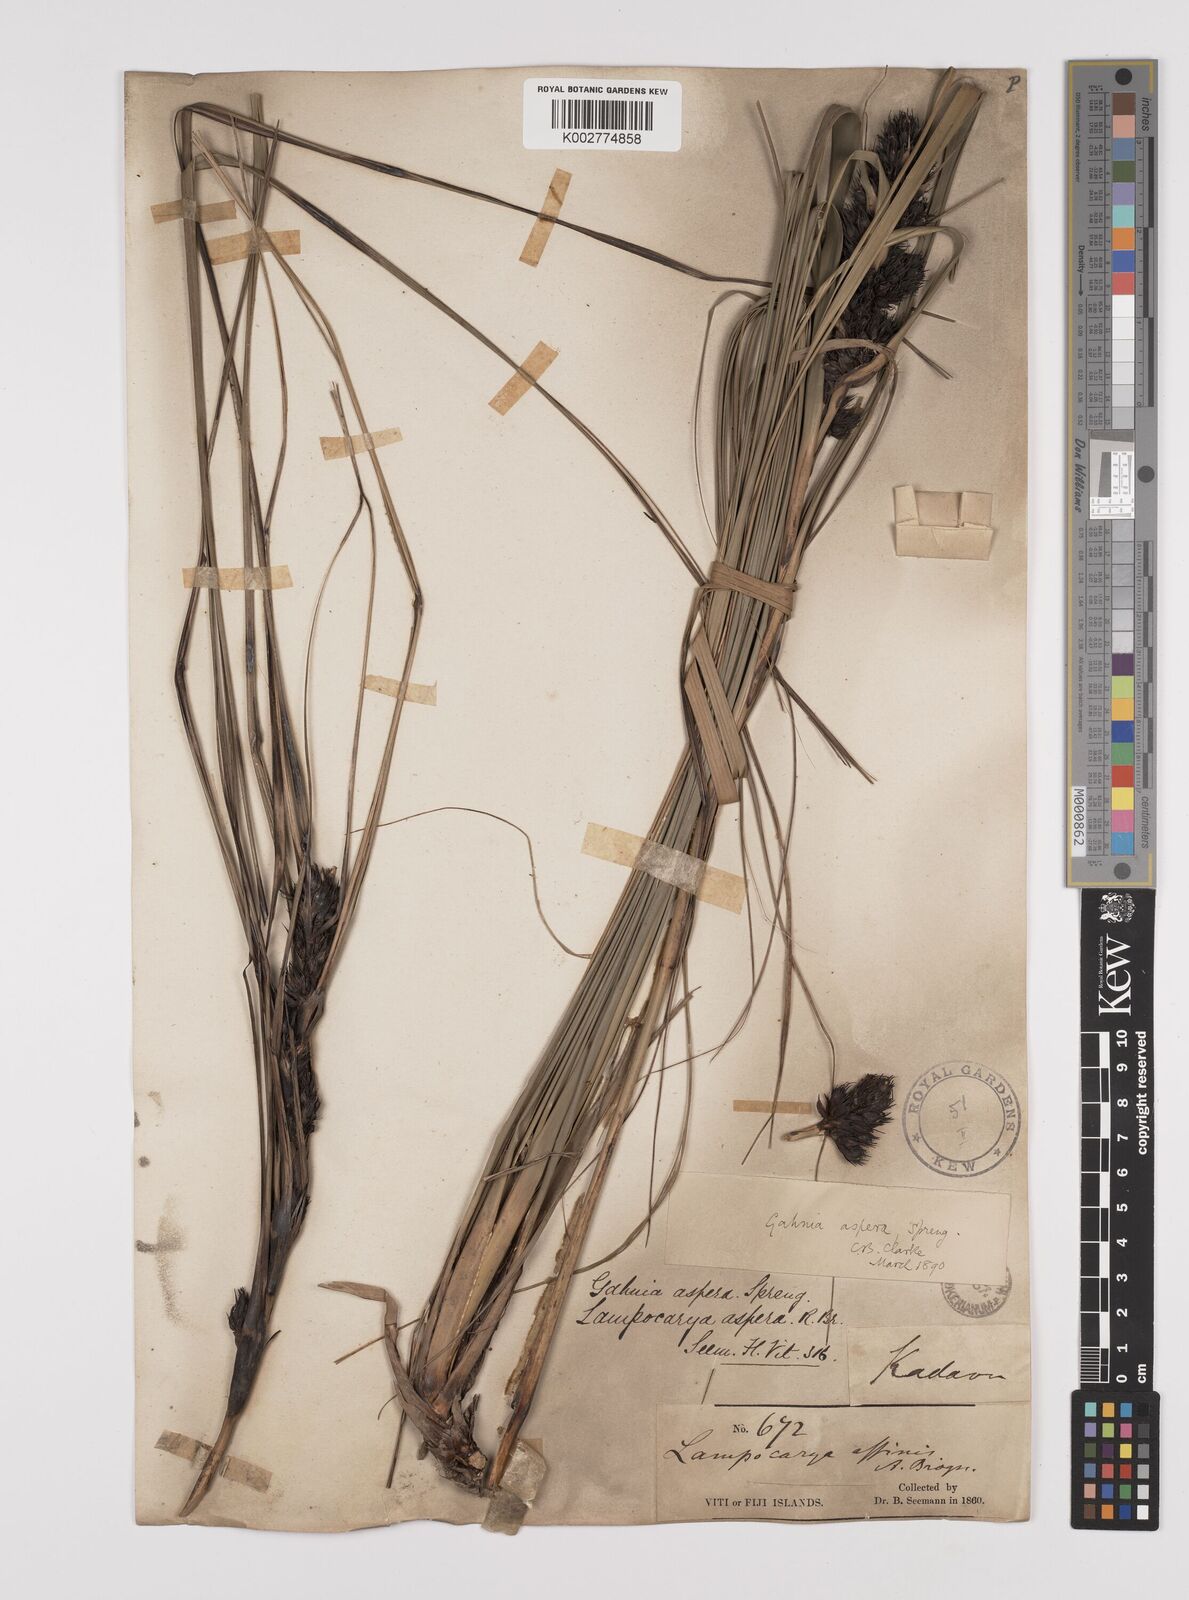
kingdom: Plantae
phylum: Tracheophyta
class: Liliopsida
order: Poales
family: Cyperaceae
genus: Gahnia
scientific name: Gahnia aspera
